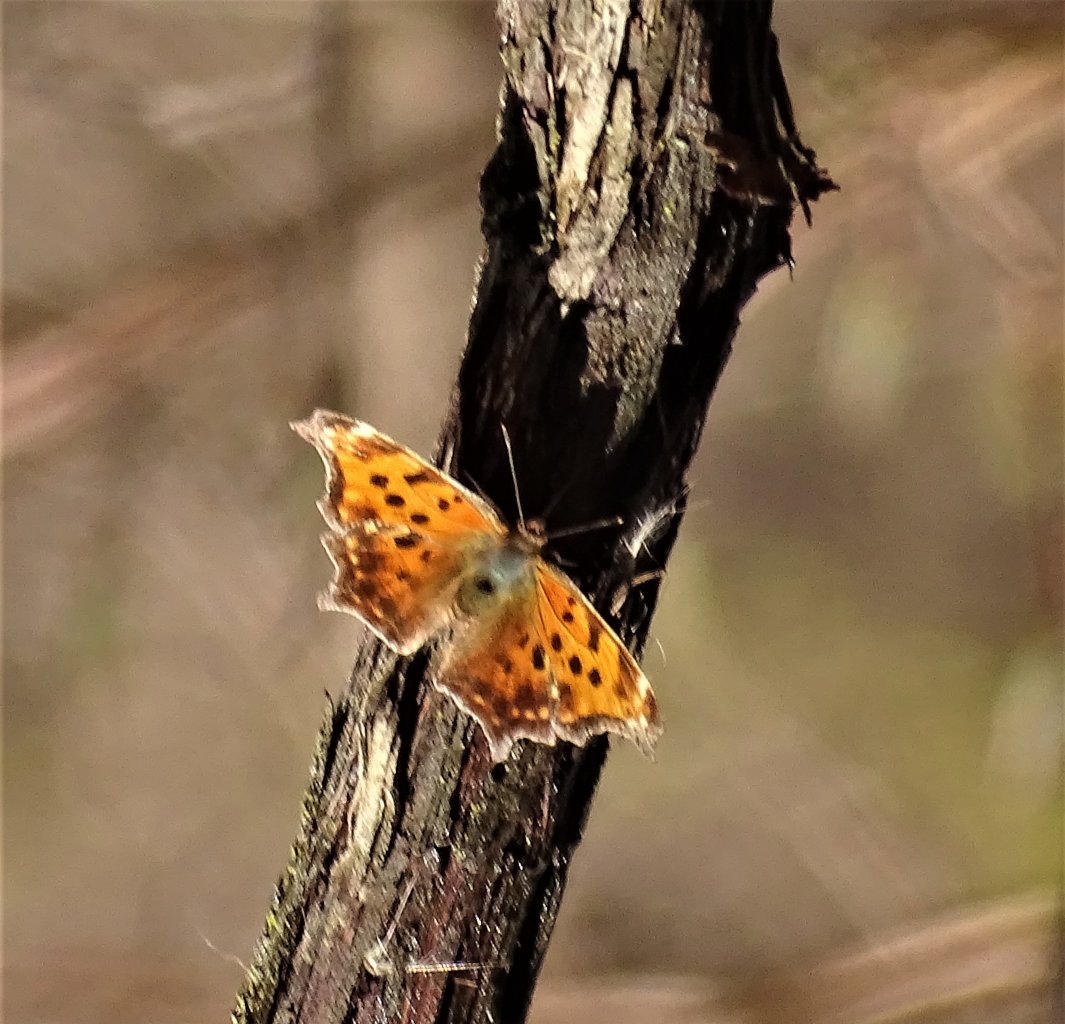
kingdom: Animalia
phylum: Arthropoda
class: Insecta
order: Lepidoptera
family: Nymphalidae
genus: Polygonia
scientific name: Polygonia comma
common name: Eastern Comma
